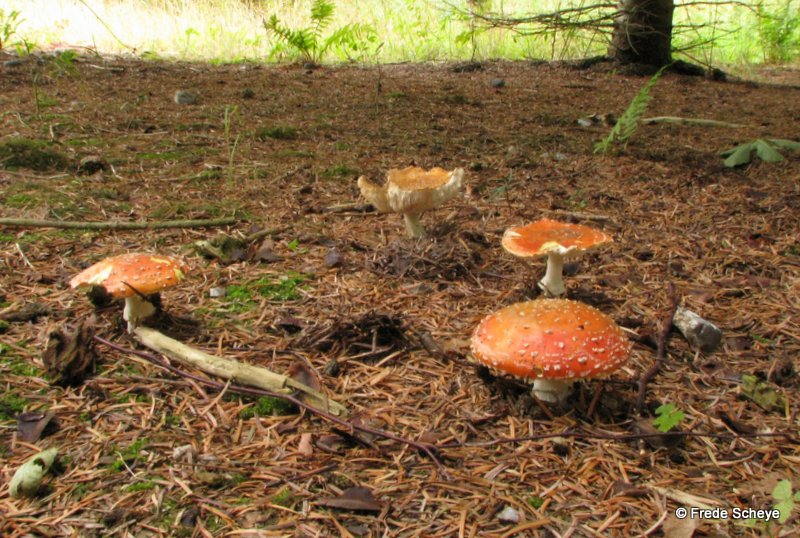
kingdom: Fungi
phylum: Basidiomycota
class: Agaricomycetes
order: Agaricales
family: Amanitaceae
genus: Amanita
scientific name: Amanita muscaria
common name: rød fluesvamp
